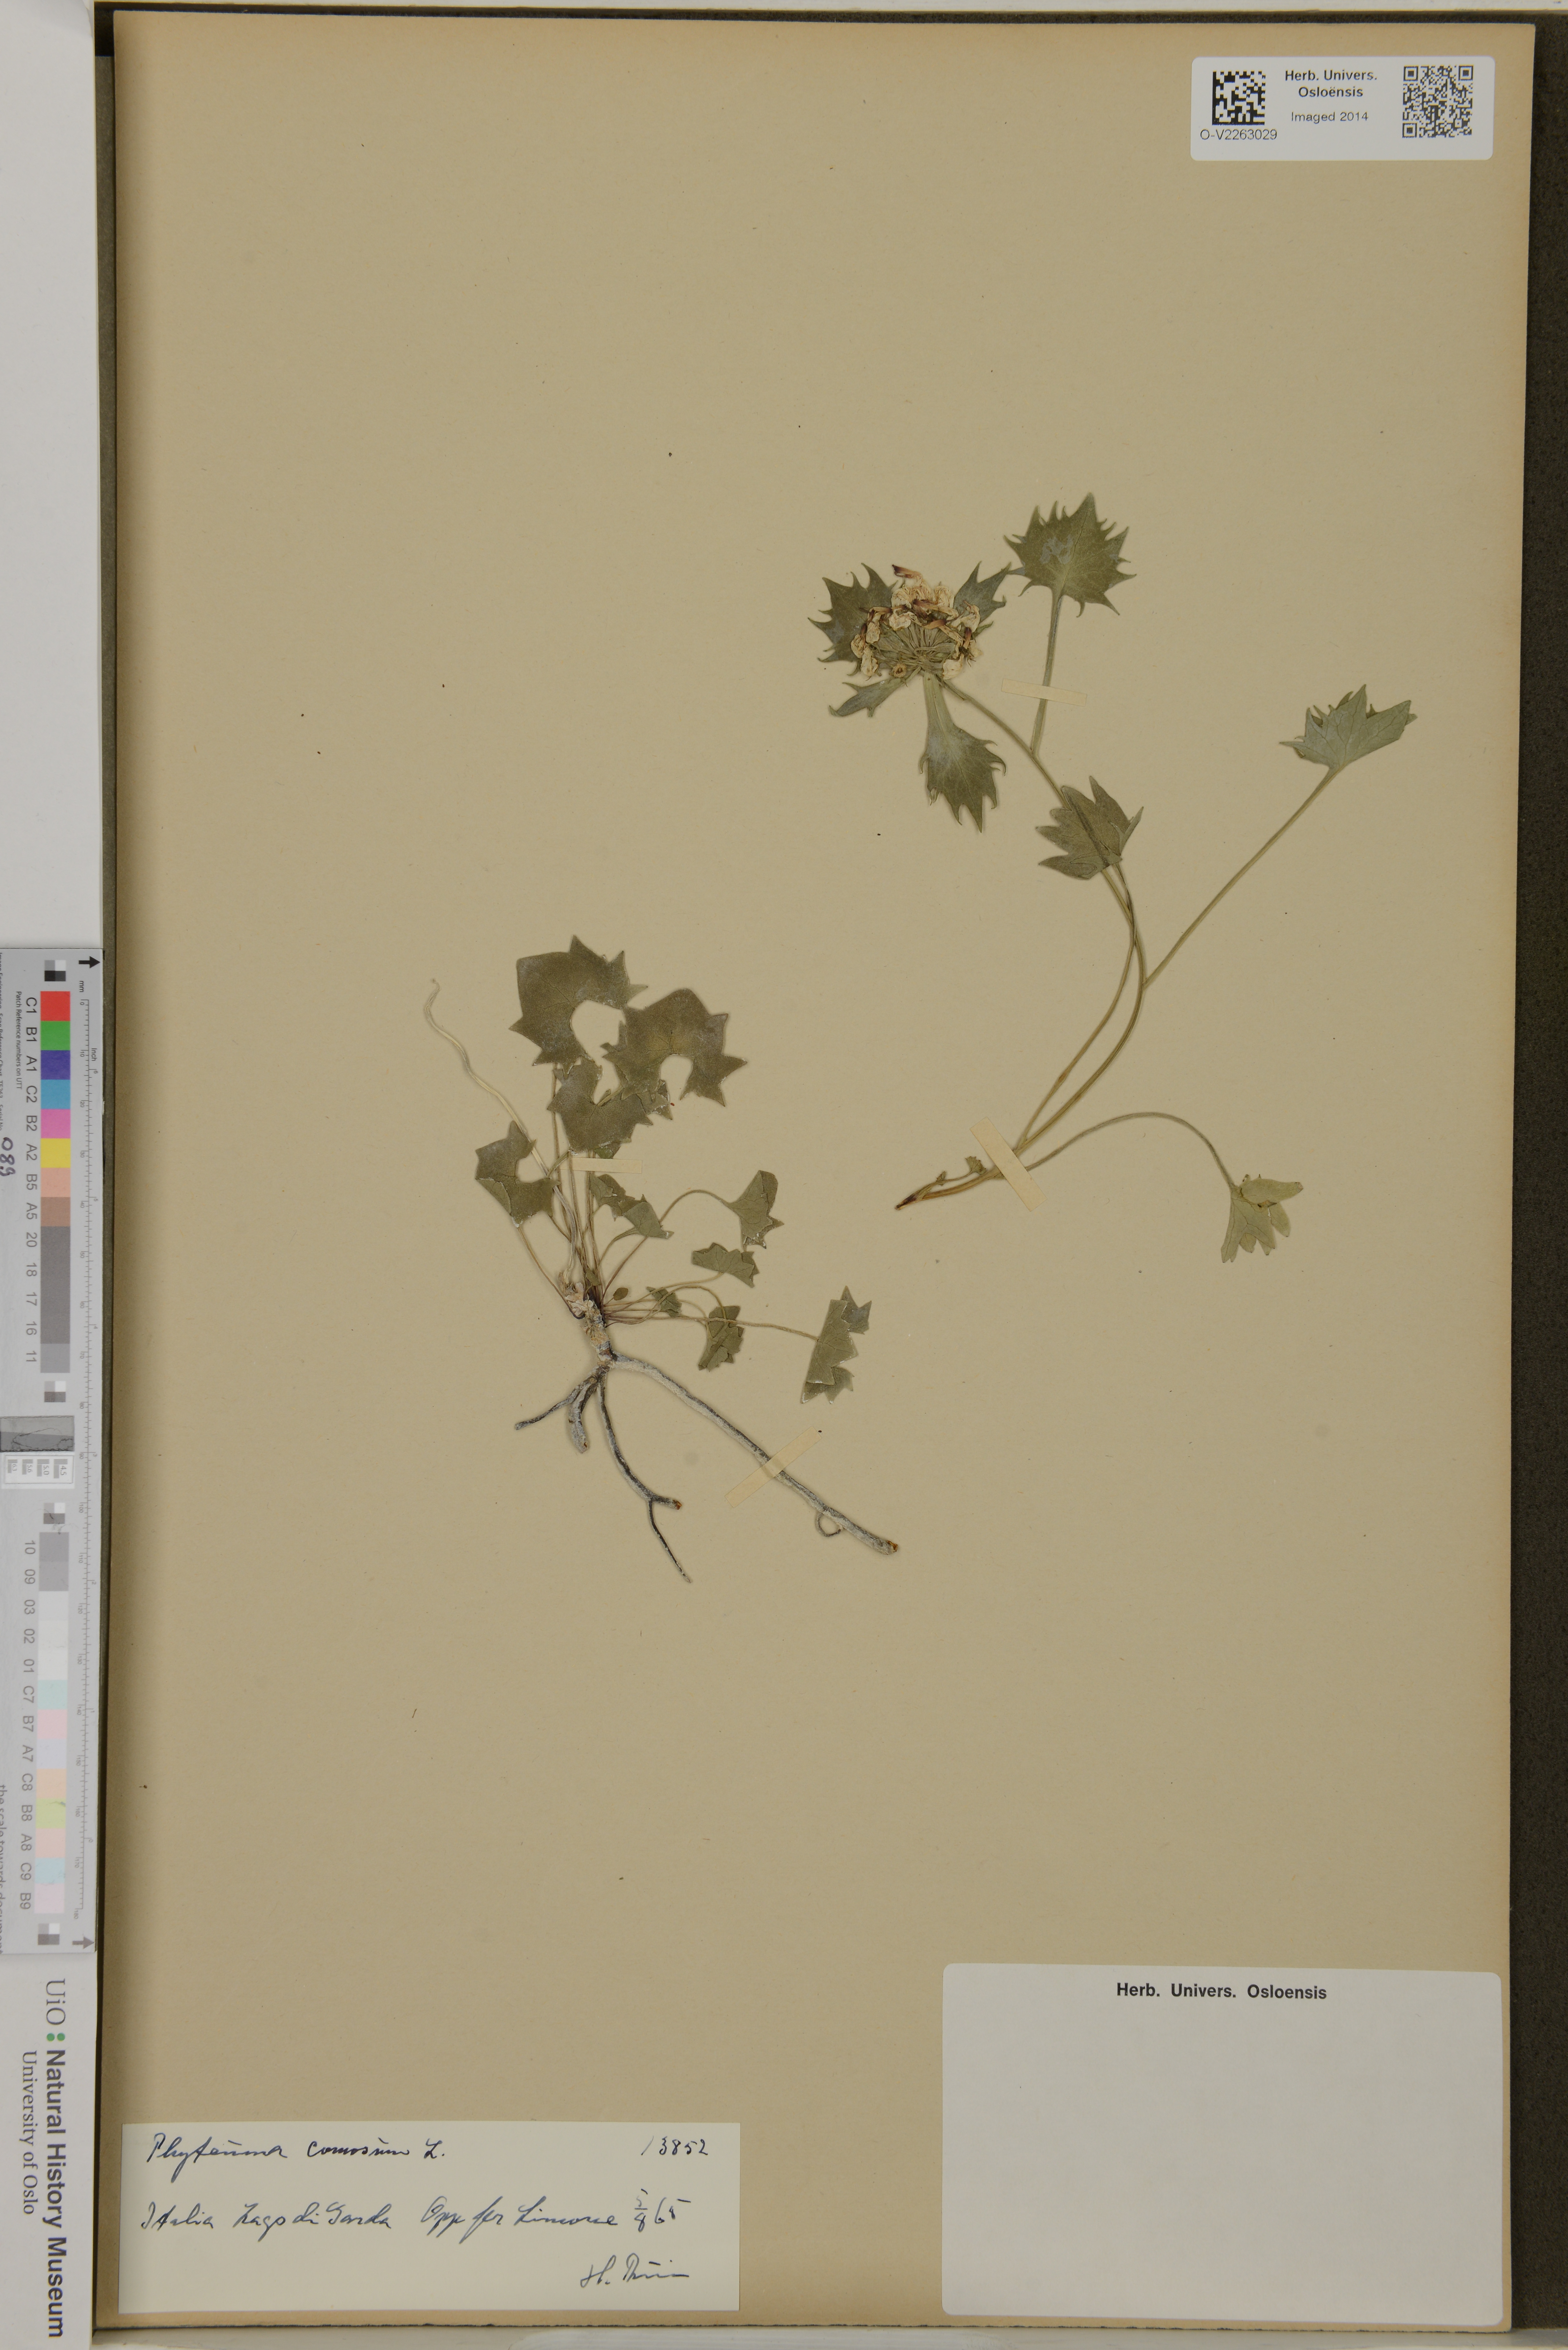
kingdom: Plantae
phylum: Tracheophyta
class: Magnoliopsida
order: Asterales
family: Campanulaceae
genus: Phyteuma
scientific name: Phyteuma orbiculare
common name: Round-headed rampion
